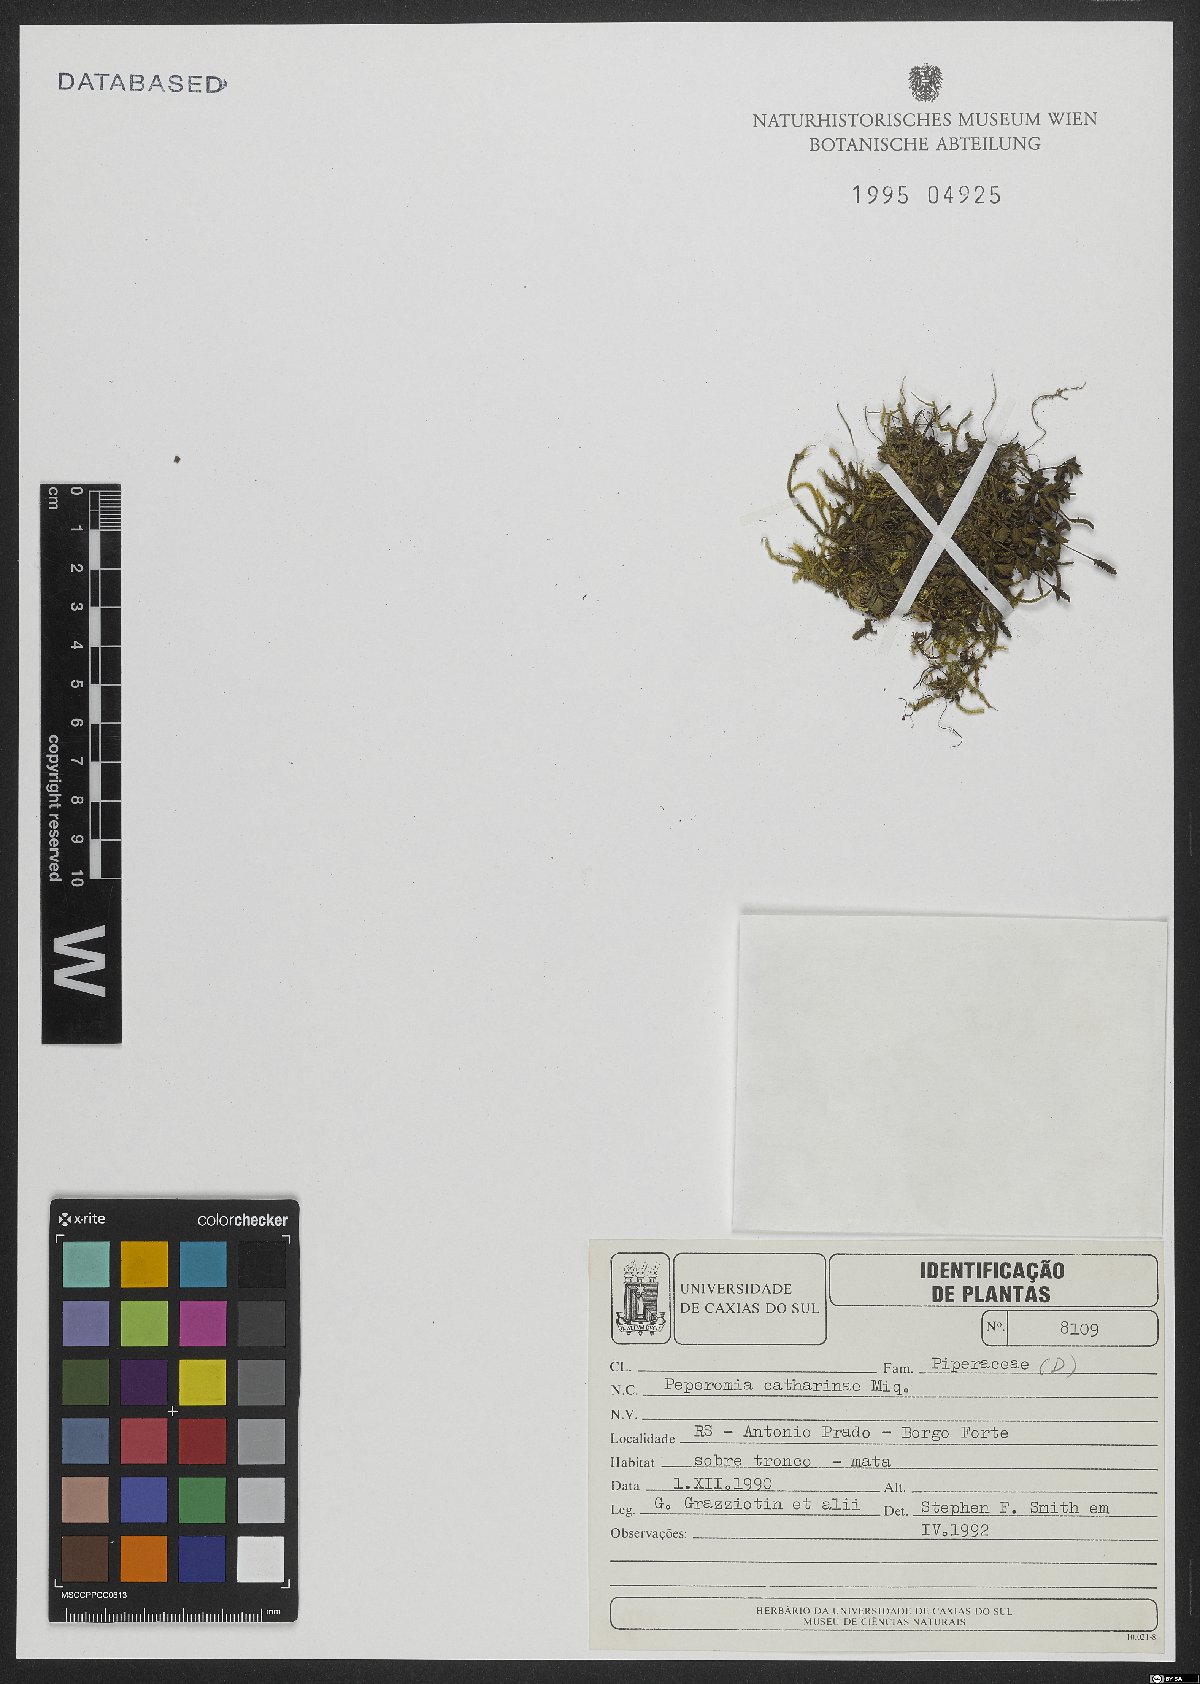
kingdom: Plantae
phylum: Tracheophyta
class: Magnoliopsida
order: Piperales
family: Piperaceae
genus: Peperomia
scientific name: Peperomia catharinae
